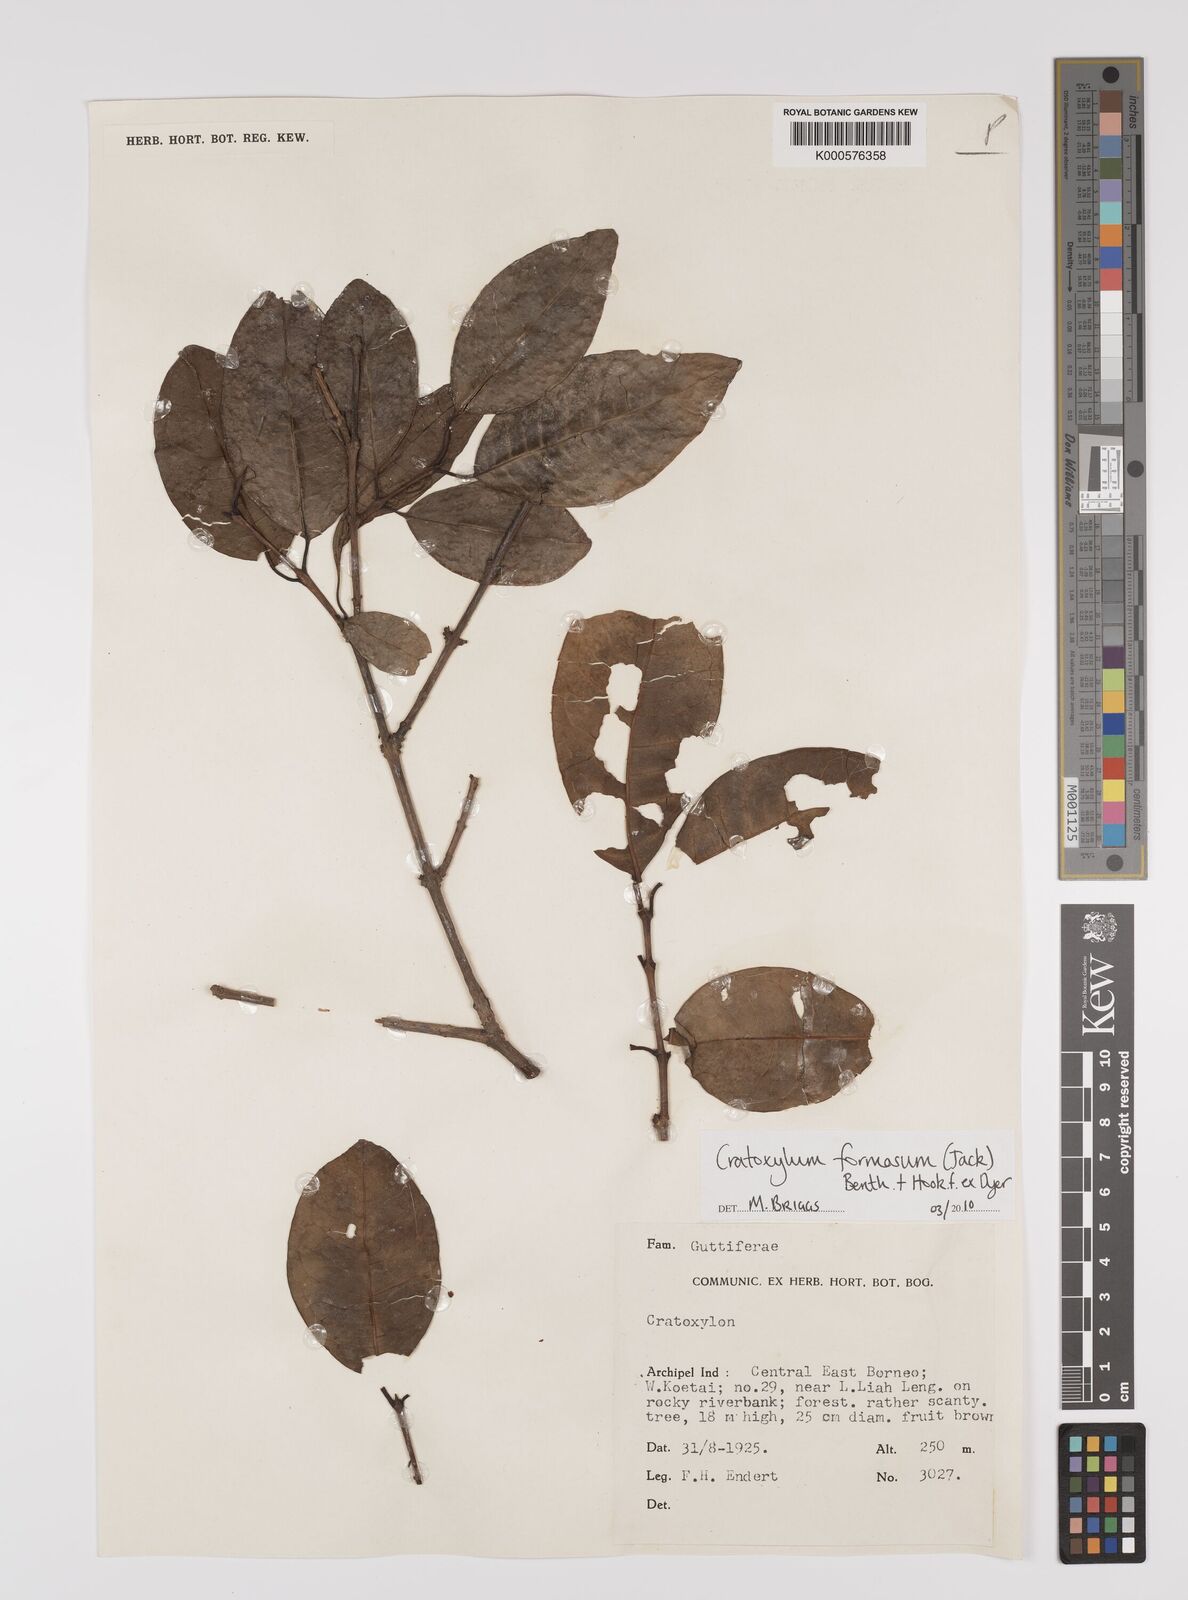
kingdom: Plantae
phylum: Tracheophyta
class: Magnoliopsida
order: Malpighiales
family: Hypericaceae
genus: Cratoxylum
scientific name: Cratoxylum formosum
